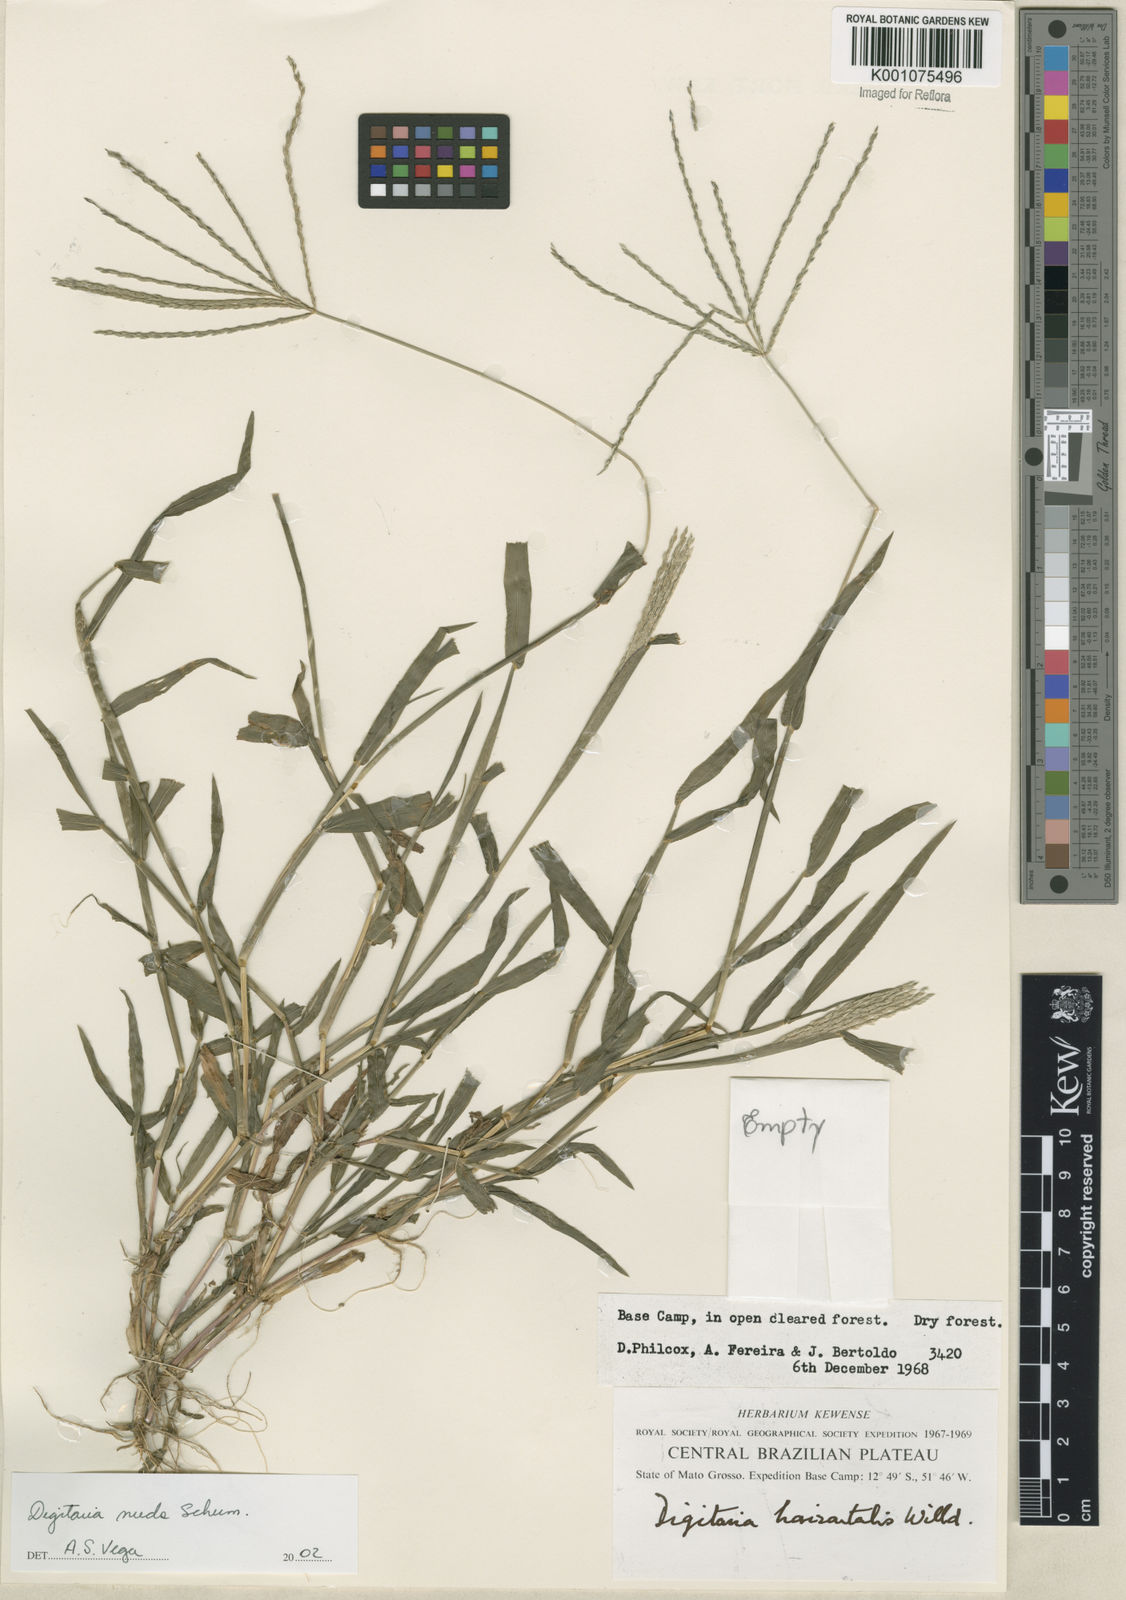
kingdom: Plantae
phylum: Tracheophyta
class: Liliopsida
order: Poales
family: Poaceae
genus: Digitaria
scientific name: Digitaria nuda
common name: Naked crabgrass
